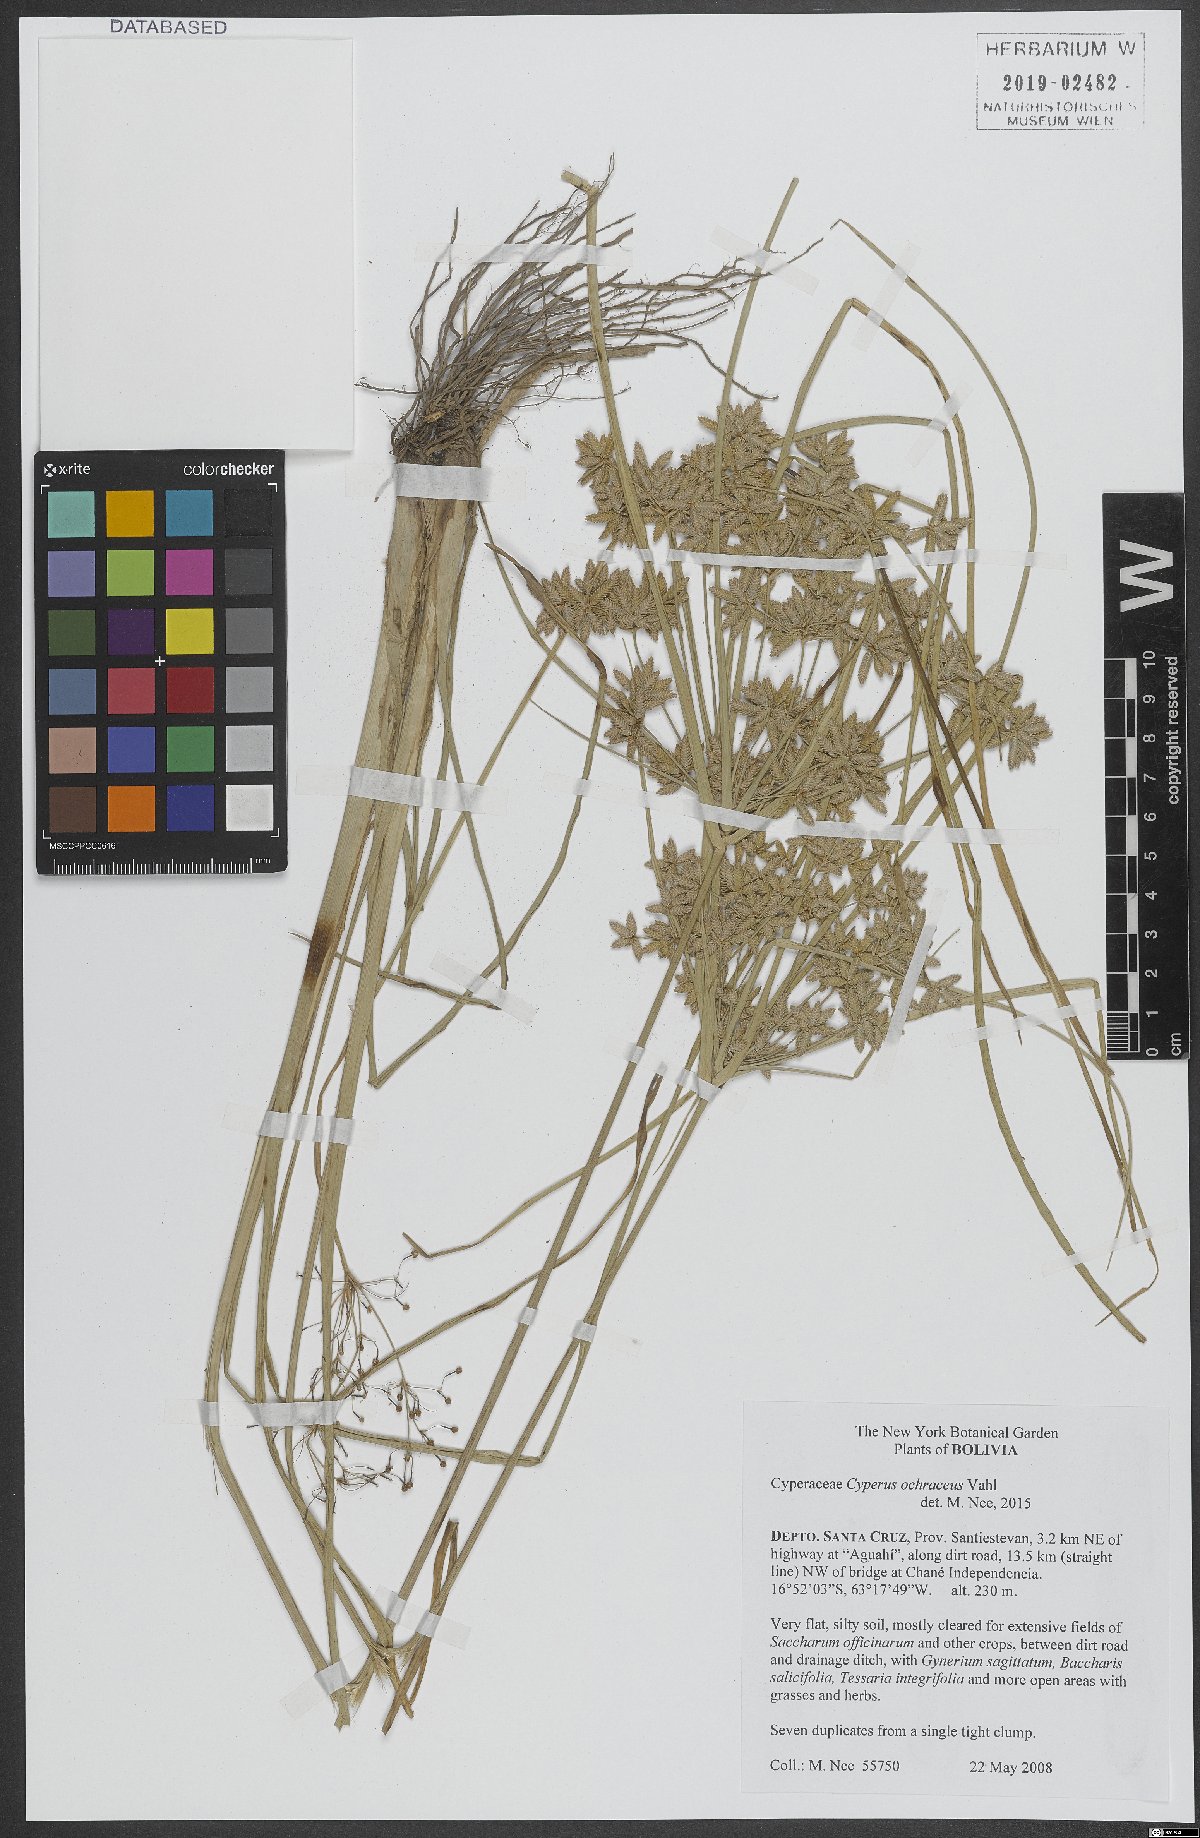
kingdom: Plantae
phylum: Tracheophyta
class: Liliopsida
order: Poales
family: Cyperaceae
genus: Cyperus
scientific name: Cyperus ochraceus
